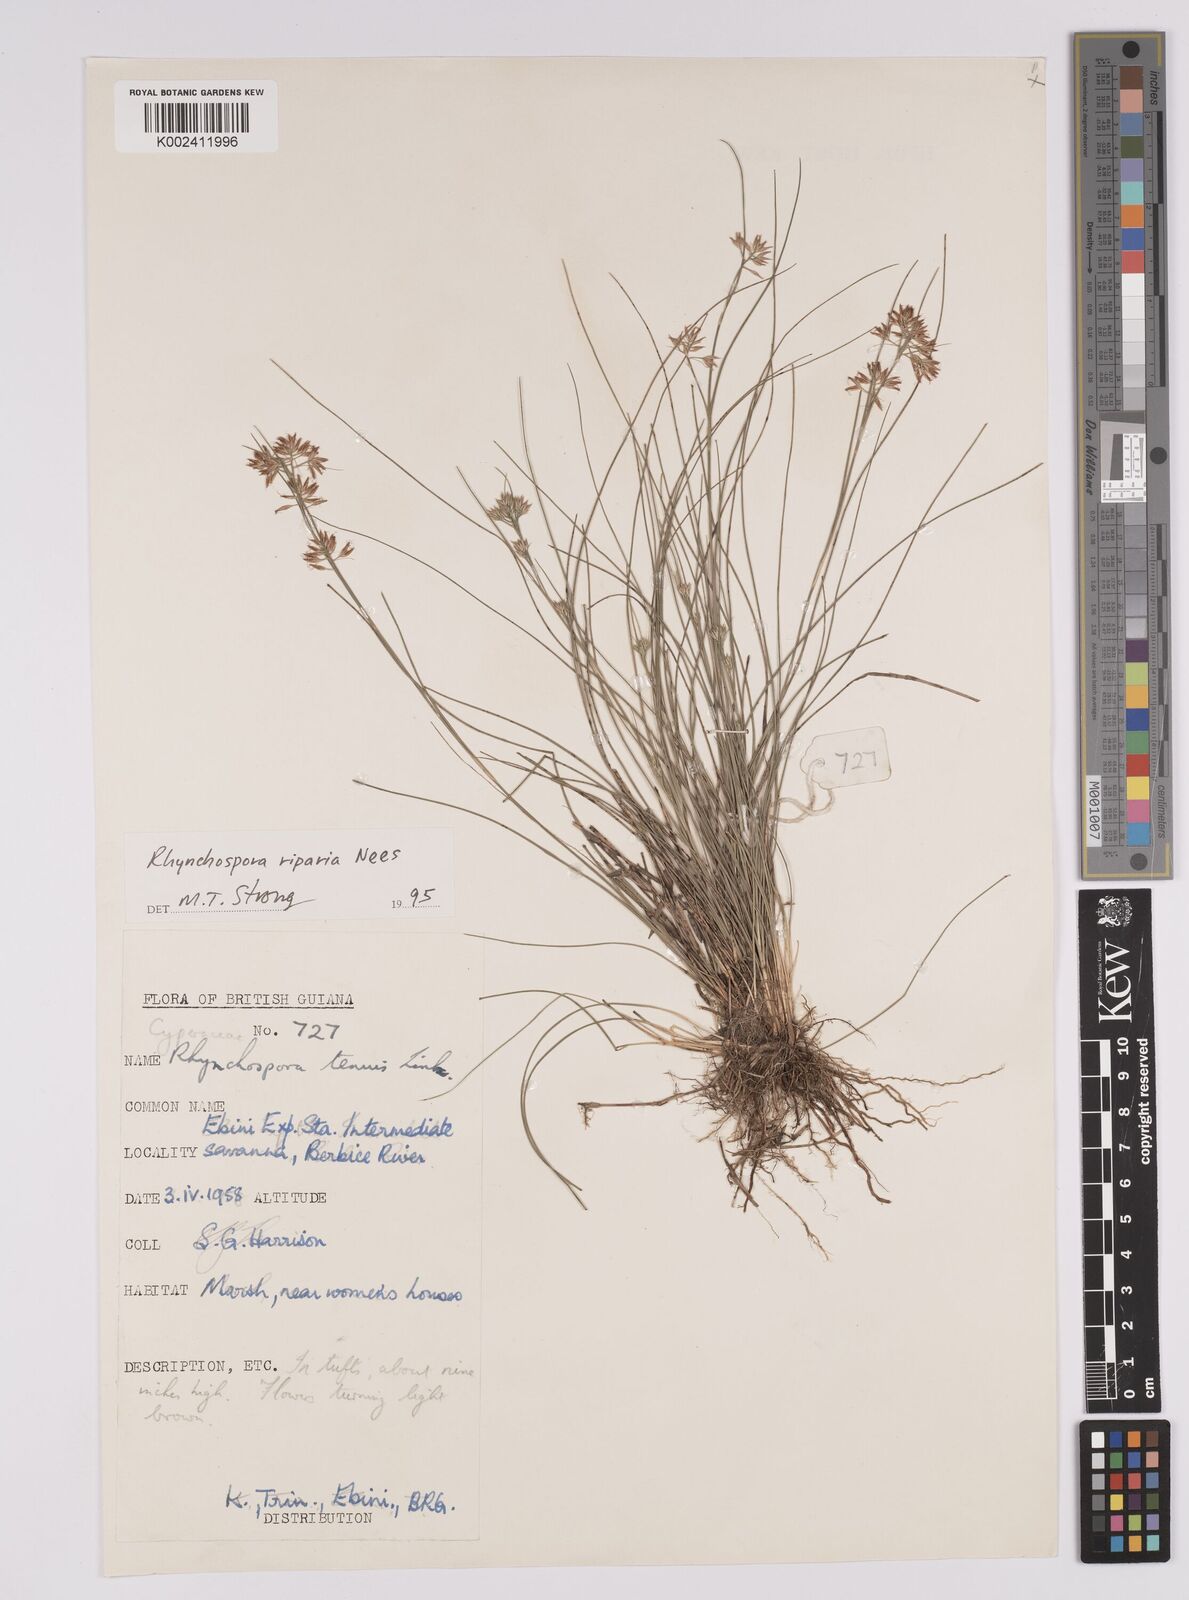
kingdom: Plantae
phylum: Tracheophyta
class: Liliopsida
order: Poales
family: Cyperaceae
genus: Rhynchospora
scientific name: Rhynchospora riparia
